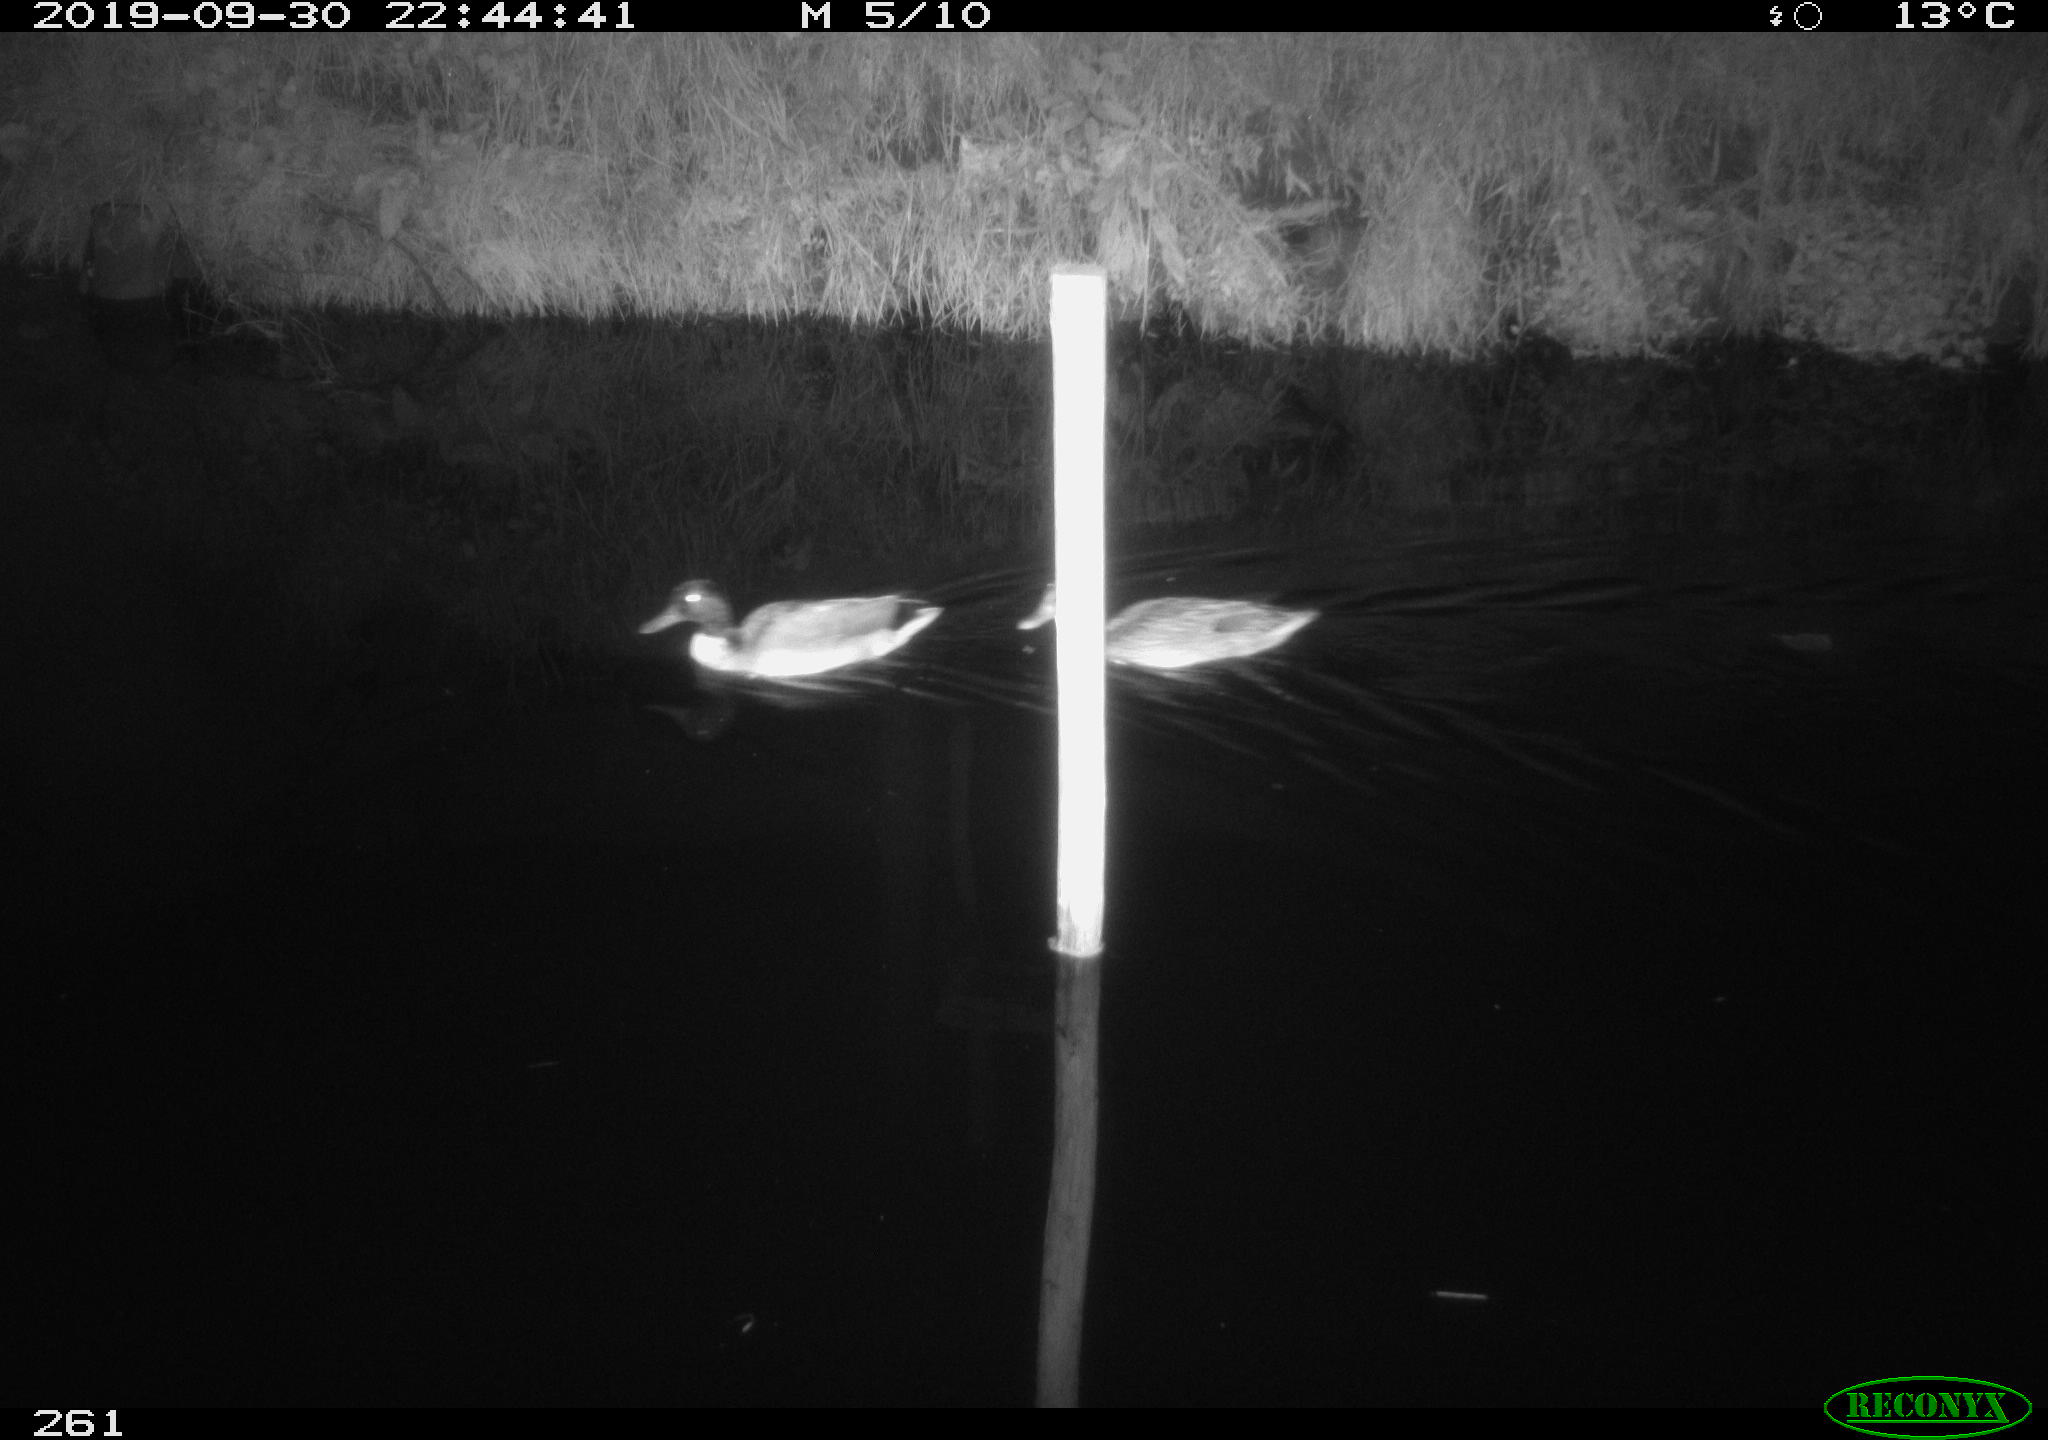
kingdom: Animalia
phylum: Chordata
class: Aves
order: Anseriformes
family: Anatidae
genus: Anas
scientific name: Anas platyrhynchos
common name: Mallard
